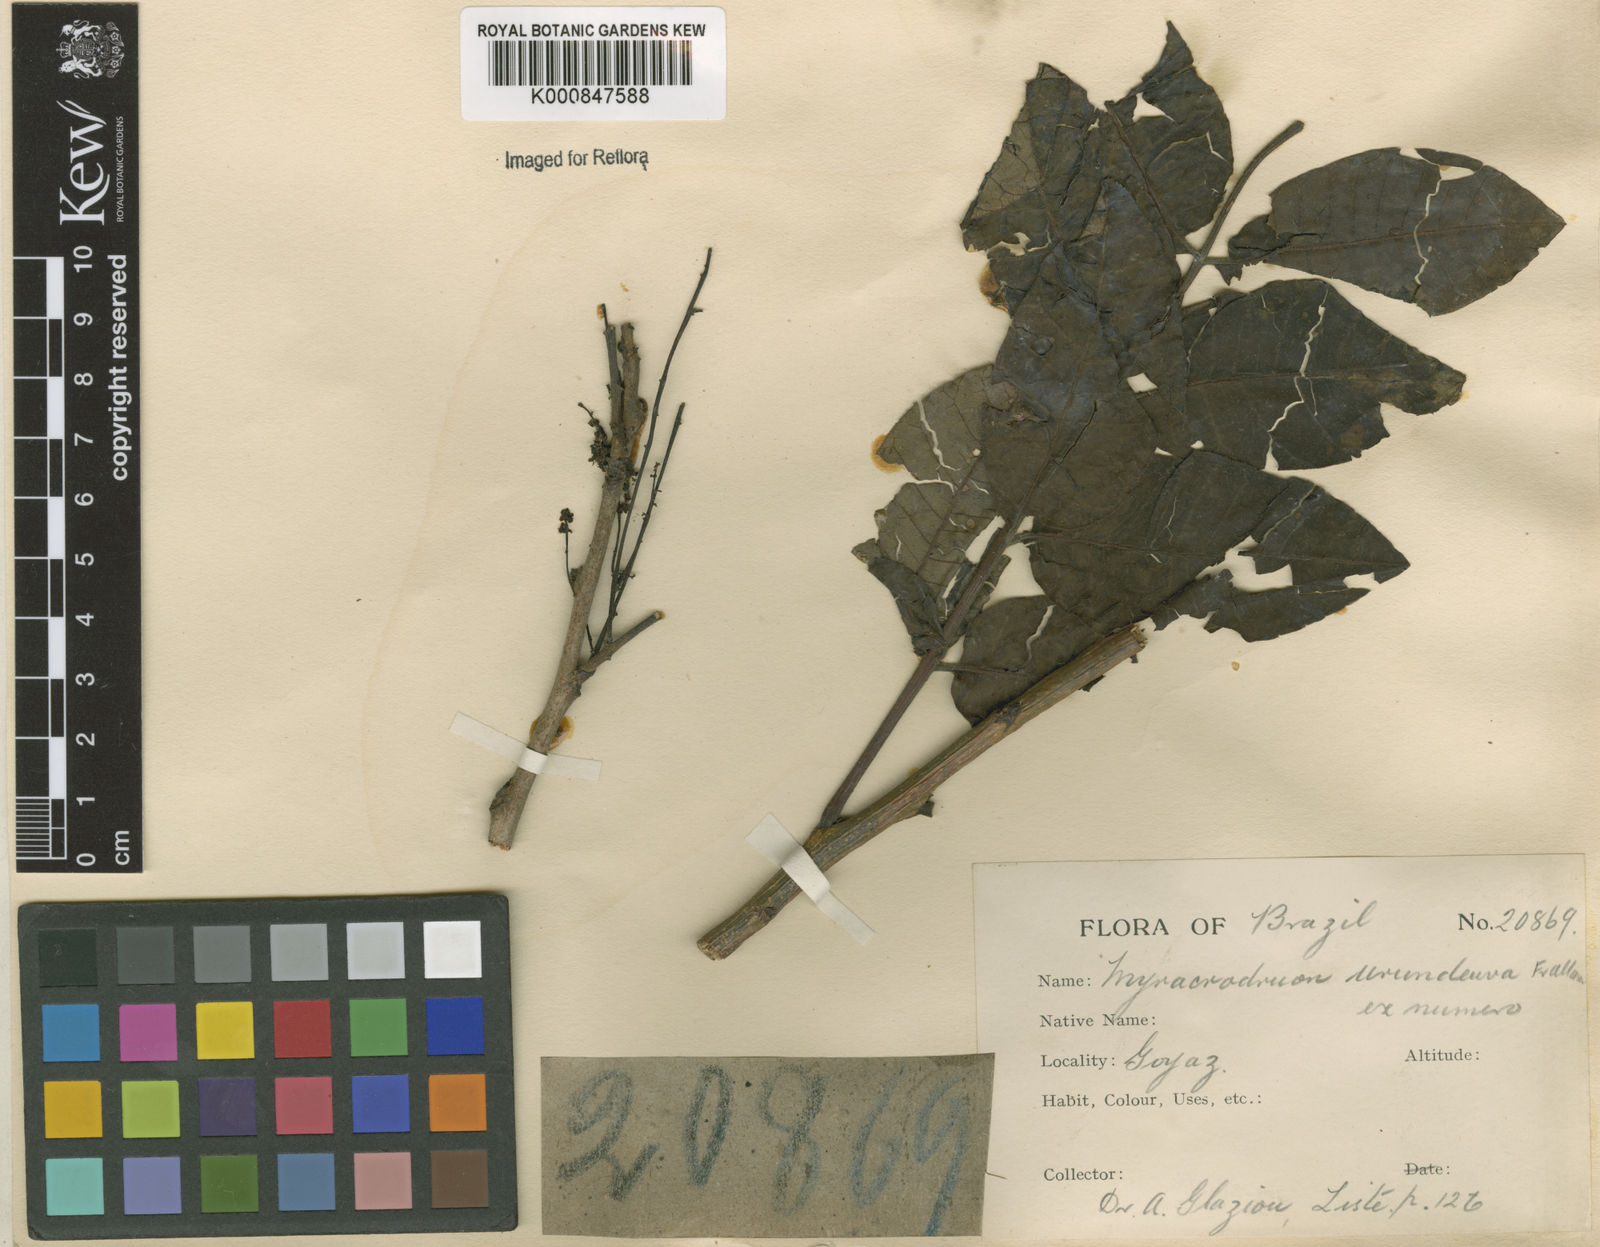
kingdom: Plantae
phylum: Tracheophyta
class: Magnoliopsida
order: Sapindales
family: Anacardiaceae
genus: Astronium
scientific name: Astronium
